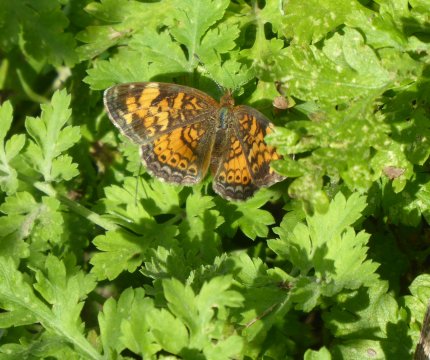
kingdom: Animalia
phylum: Arthropoda
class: Insecta
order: Lepidoptera
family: Nymphalidae
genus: Phyciodes
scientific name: Phyciodes
